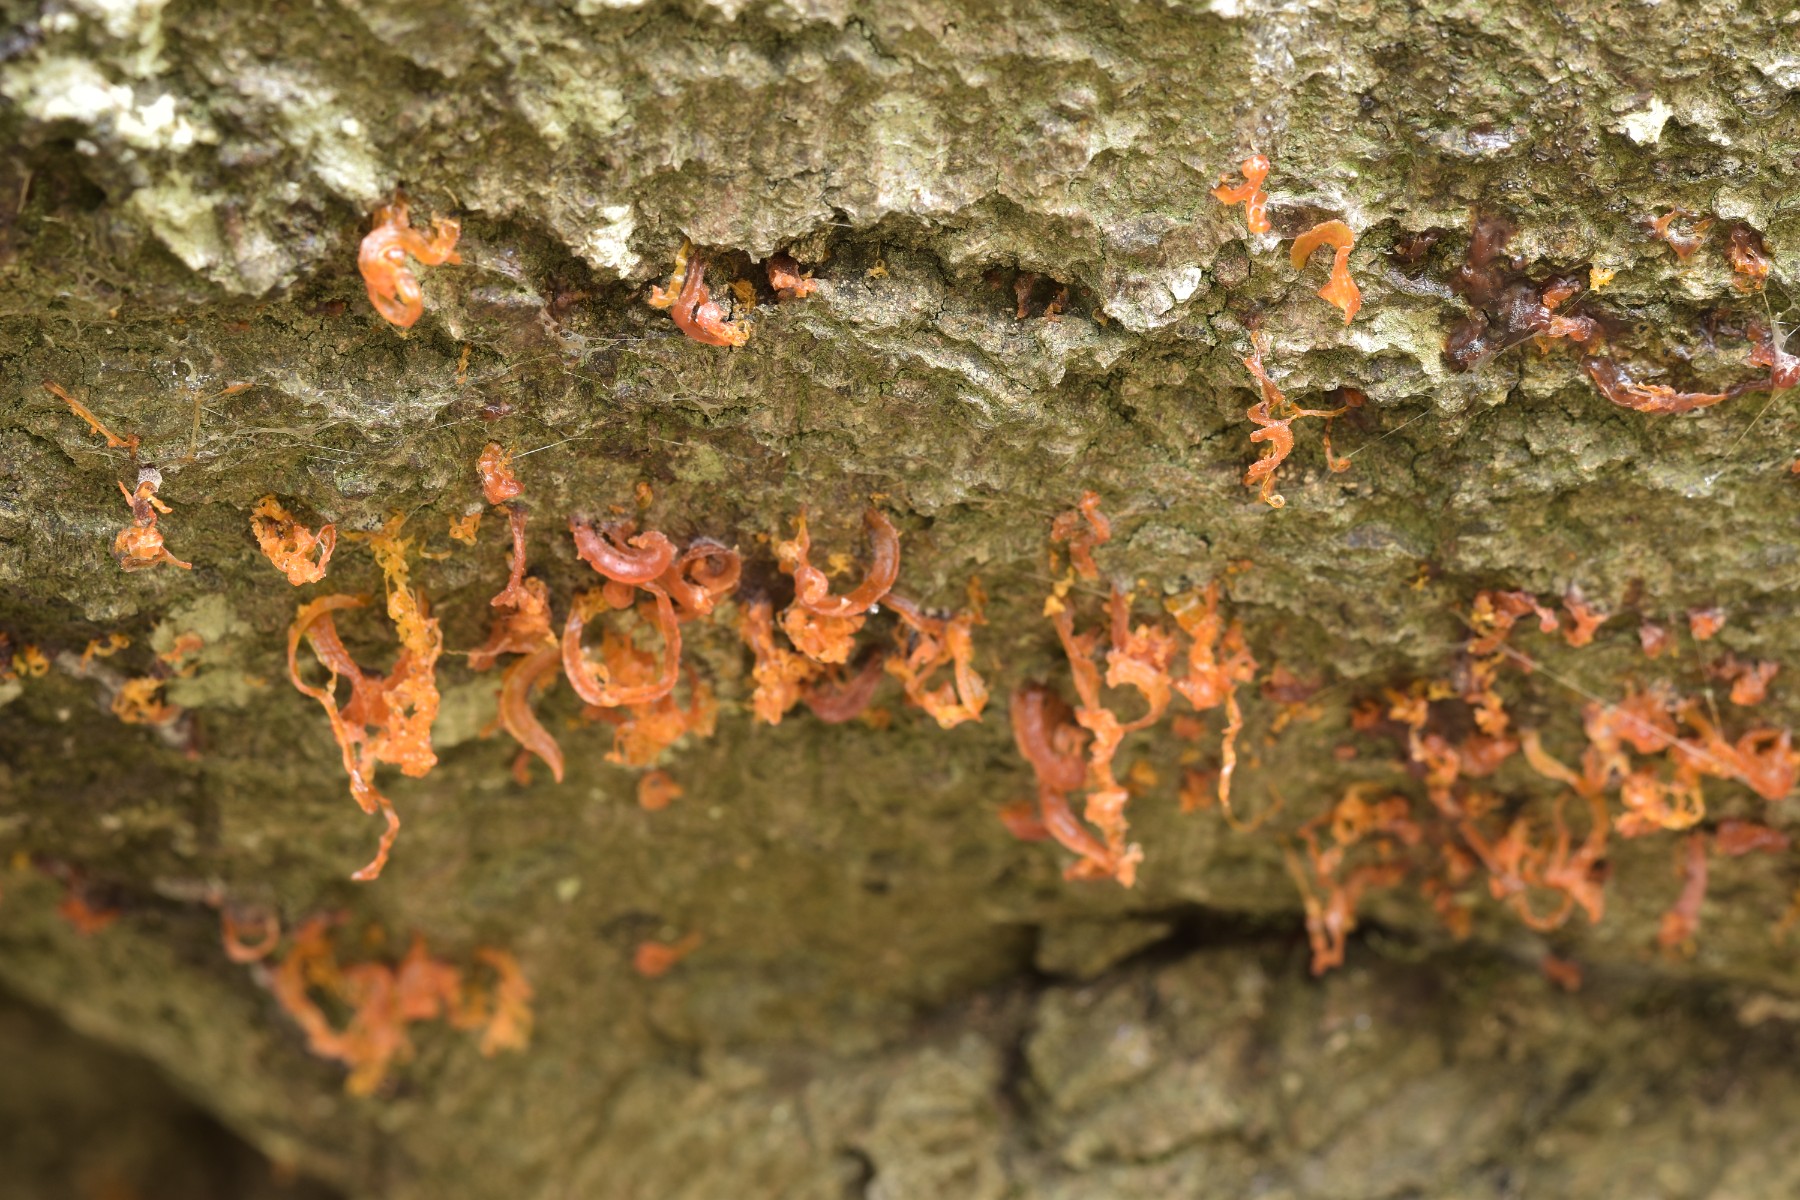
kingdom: Fungi
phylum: Ascomycota
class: Sordariomycetes
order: Xylariales
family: Diatrypaceae
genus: Eutypella
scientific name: Eutypella quaternata
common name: bøge-korsprik
